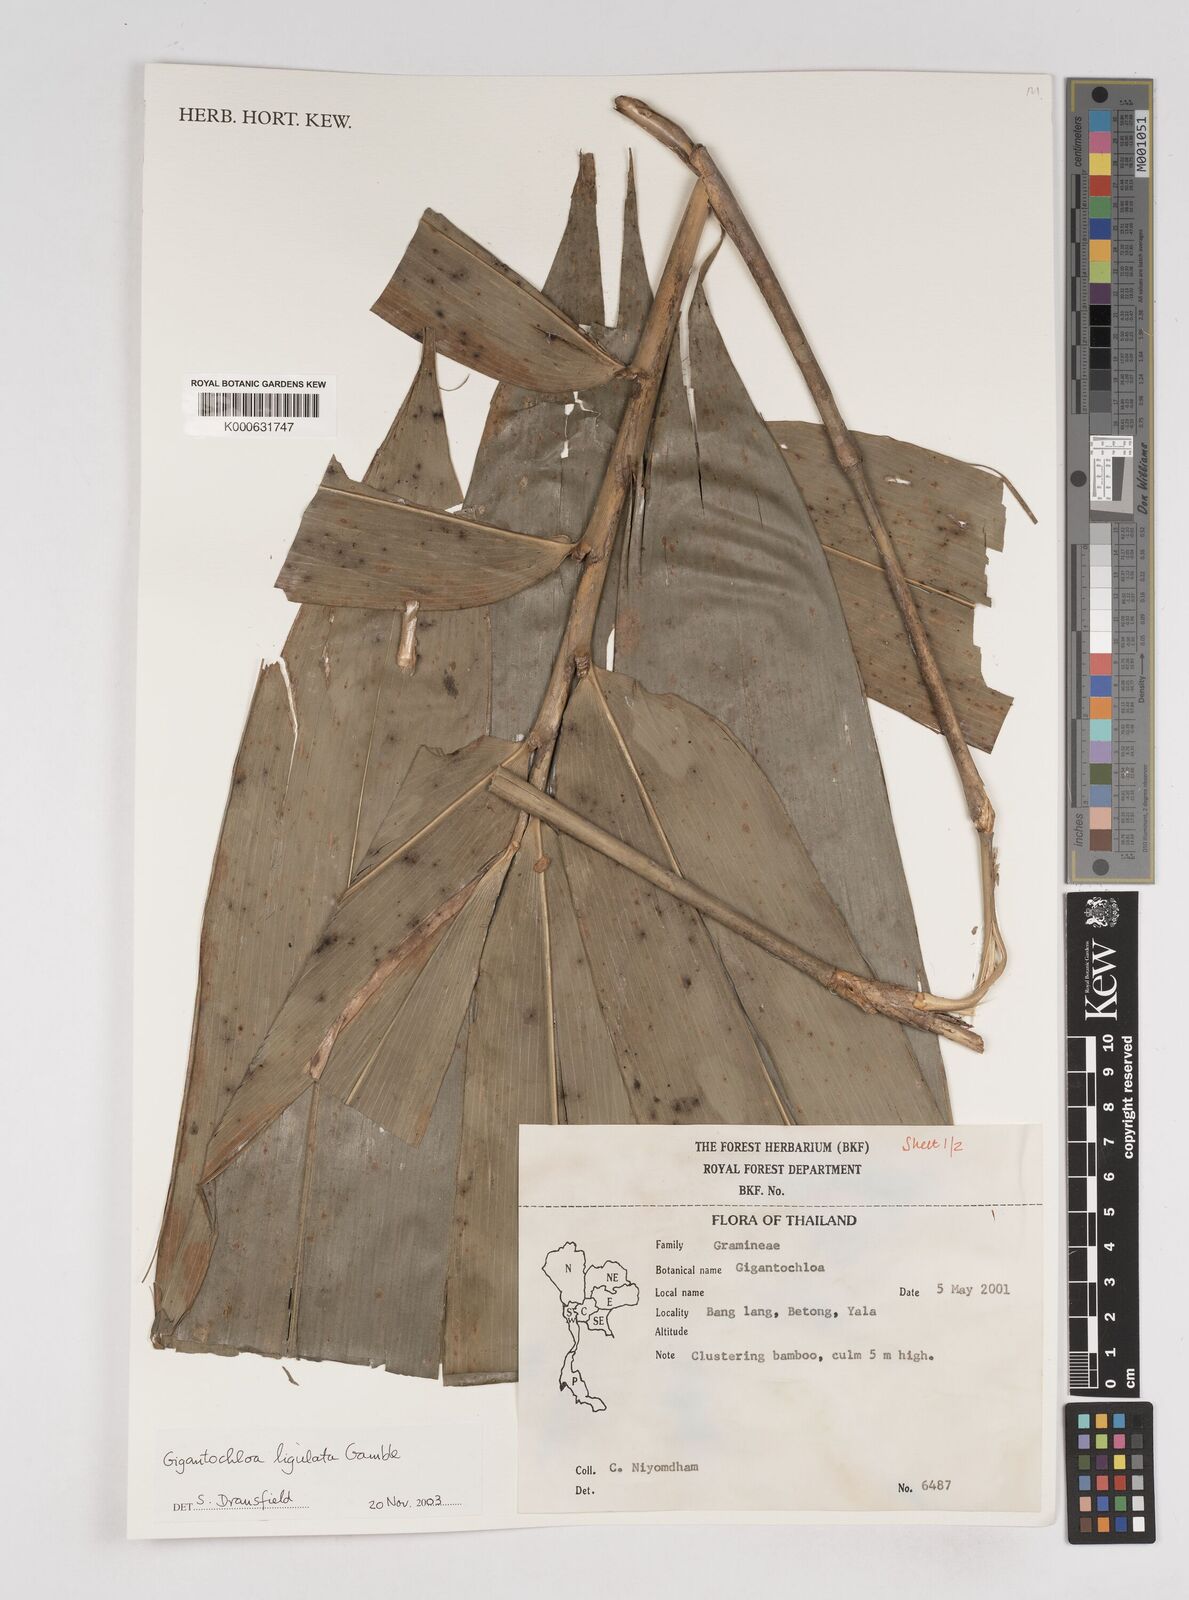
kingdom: Plantae
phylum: Tracheophyta
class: Liliopsida
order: Poales
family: Poaceae
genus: Gigantochloa
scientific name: Gigantochloa ligulata
